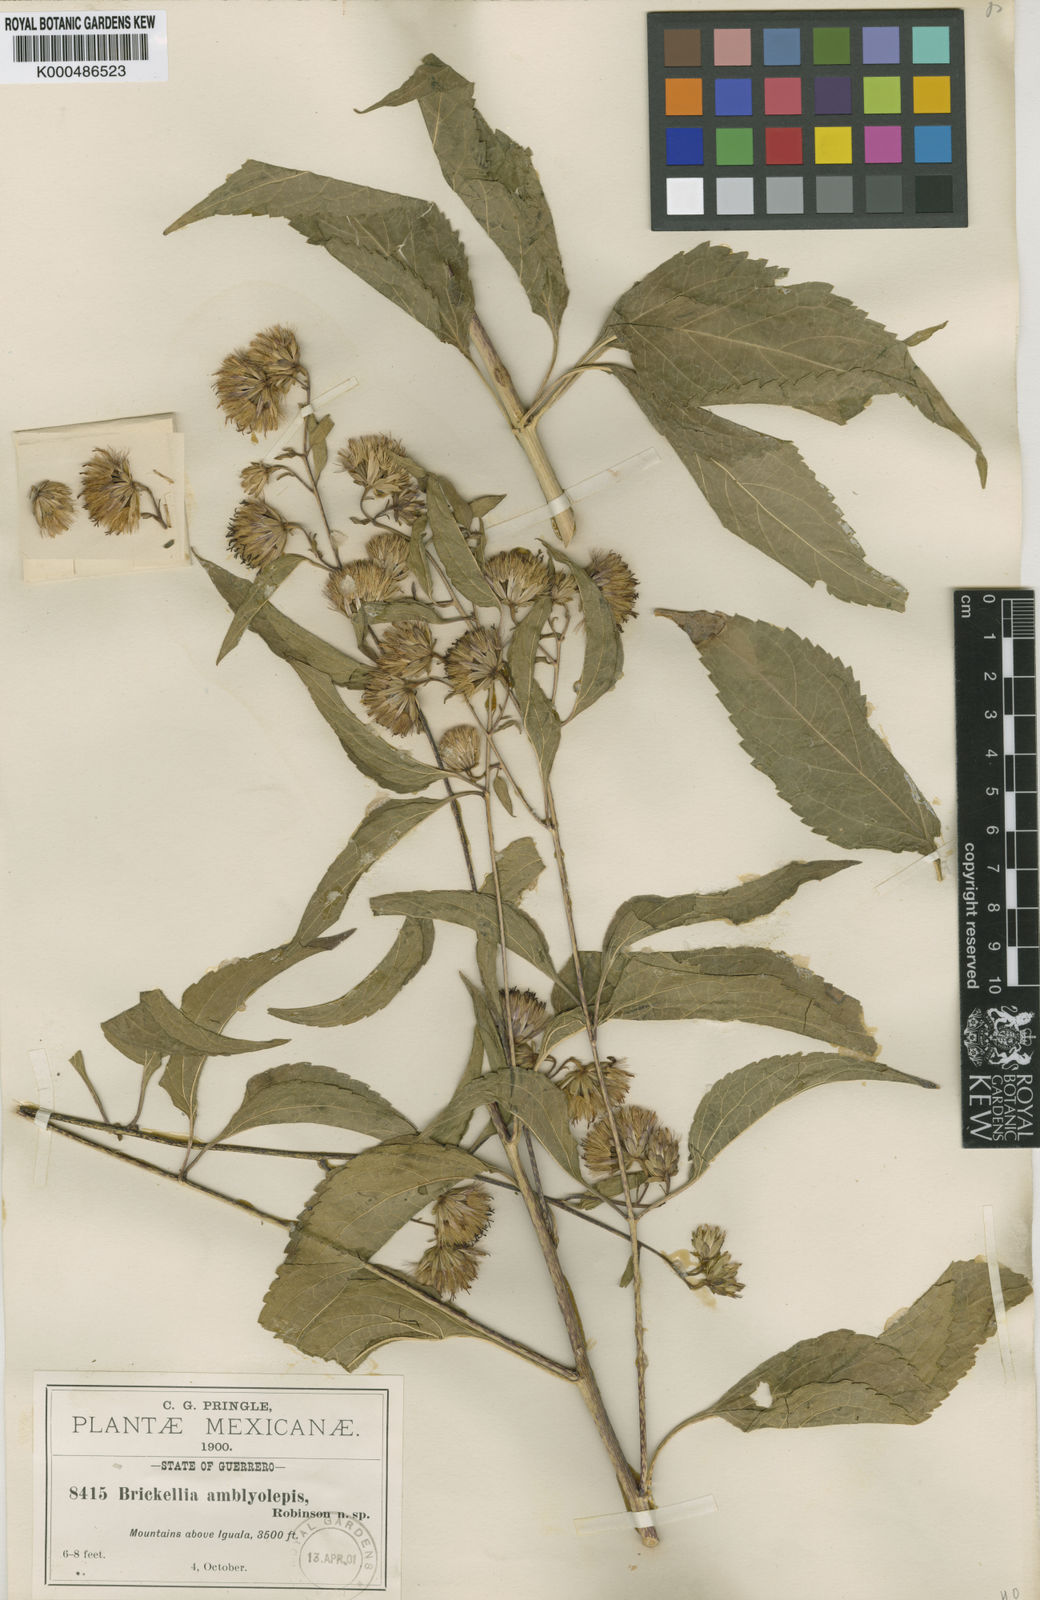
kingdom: Plantae
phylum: Tracheophyta
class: Magnoliopsida
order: Asterales
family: Asteraceae
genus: Steviopsis
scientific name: Steviopsis amblyolepis
